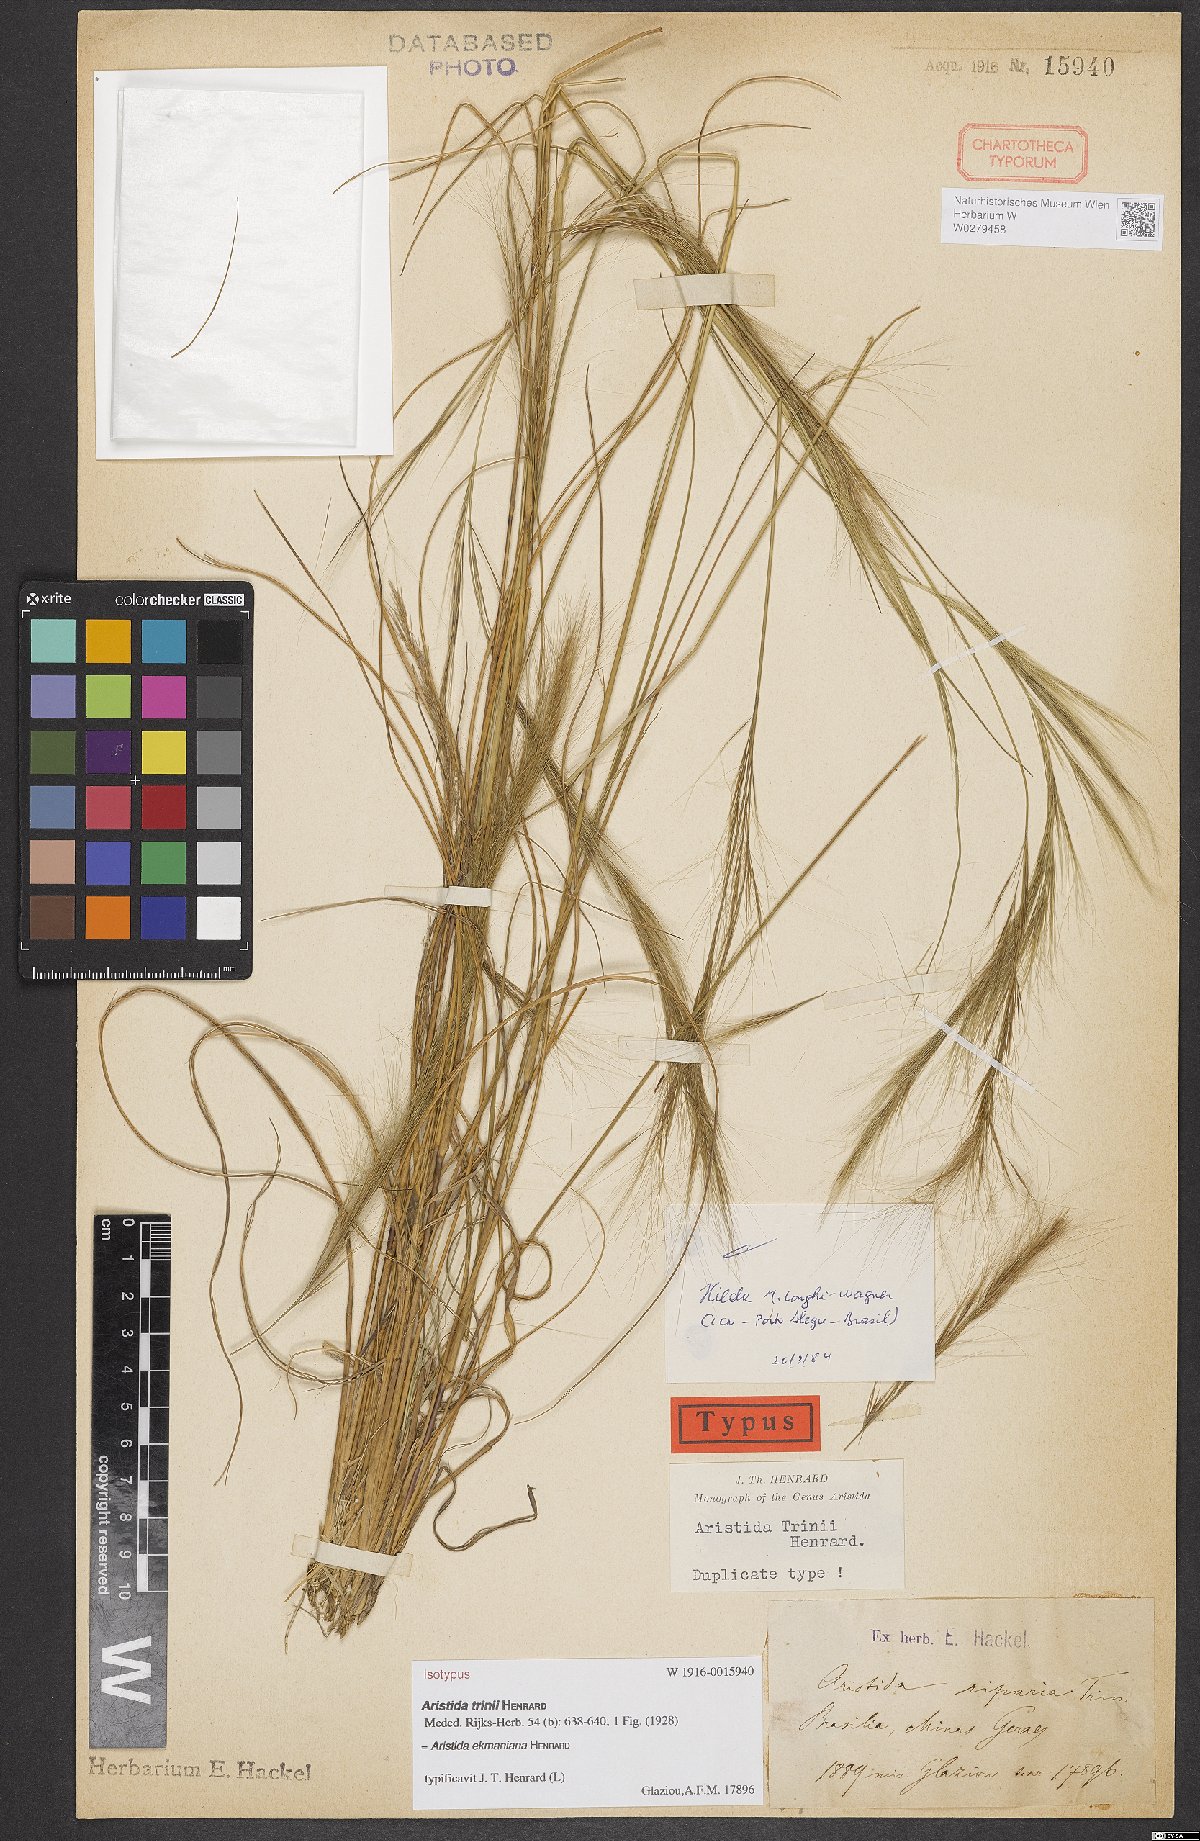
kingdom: Plantae
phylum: Tracheophyta
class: Liliopsida
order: Poales
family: Poaceae
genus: Aristida
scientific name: Aristida ekmaniana
